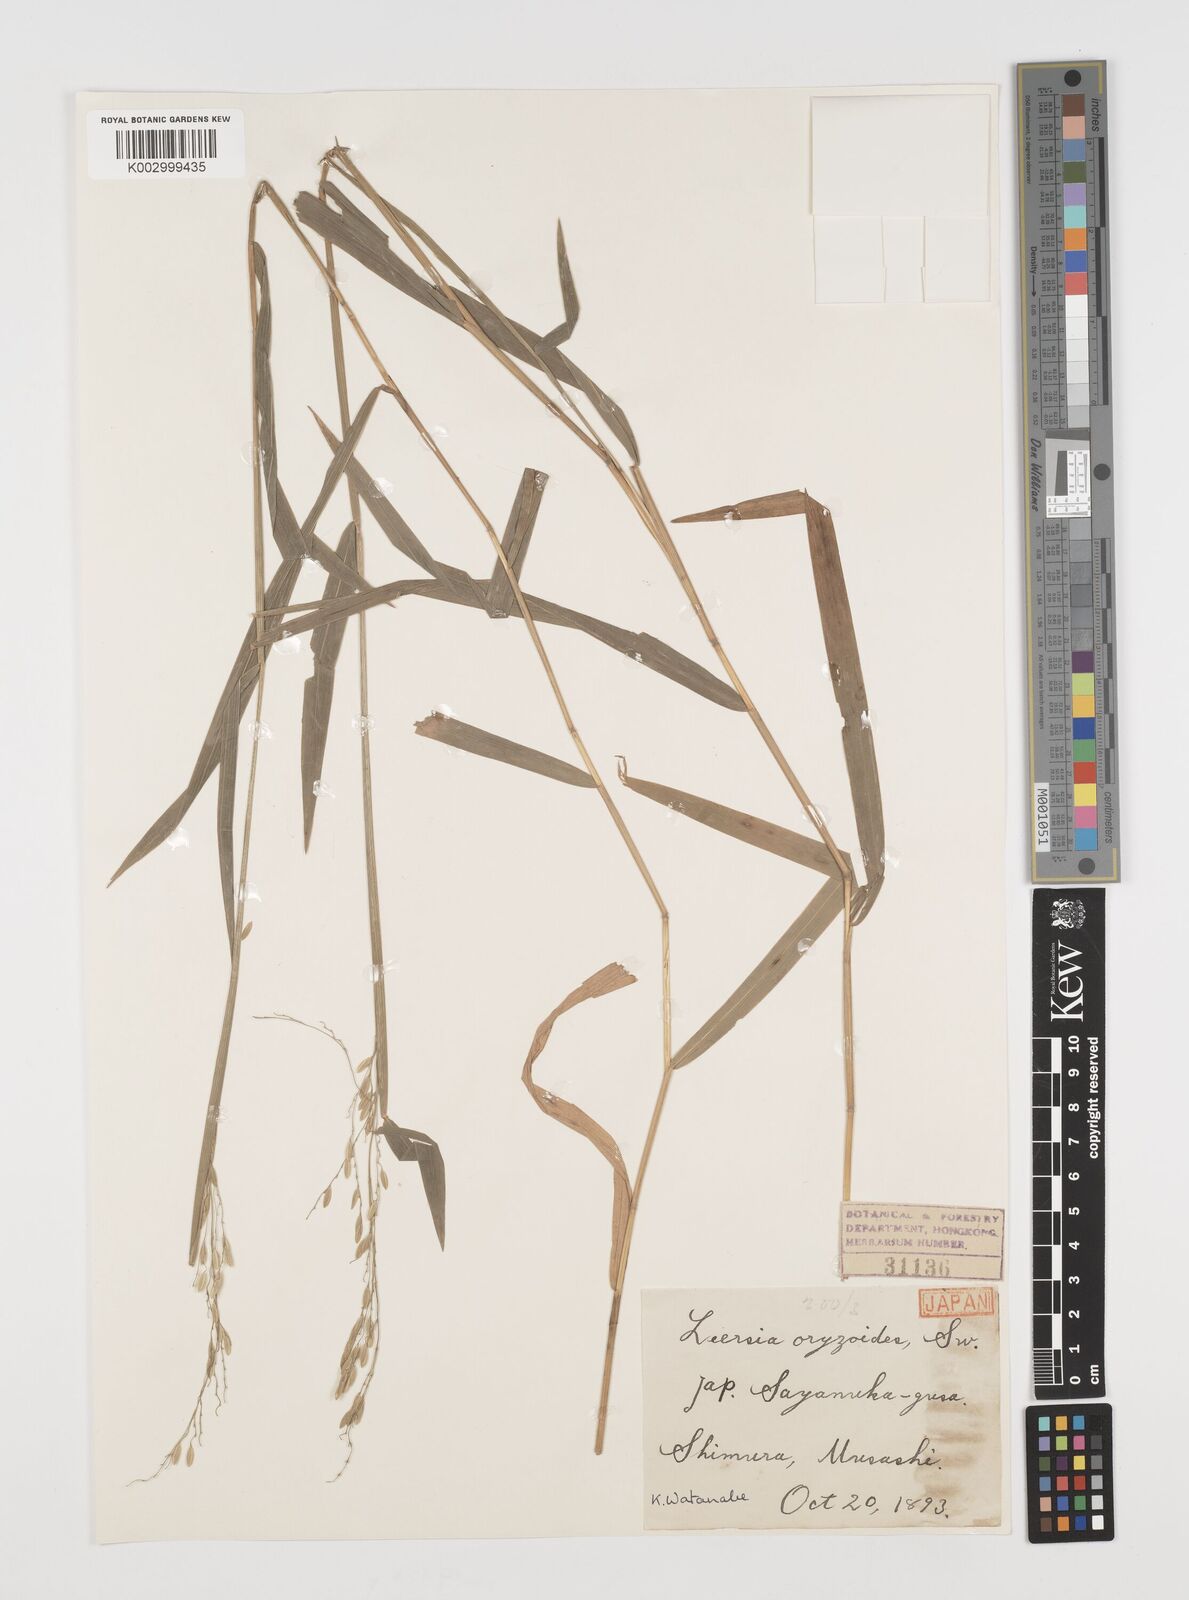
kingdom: Plantae
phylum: Tracheophyta
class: Liliopsida
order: Poales
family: Poaceae
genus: Leersia
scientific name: Leersia sayanuka
